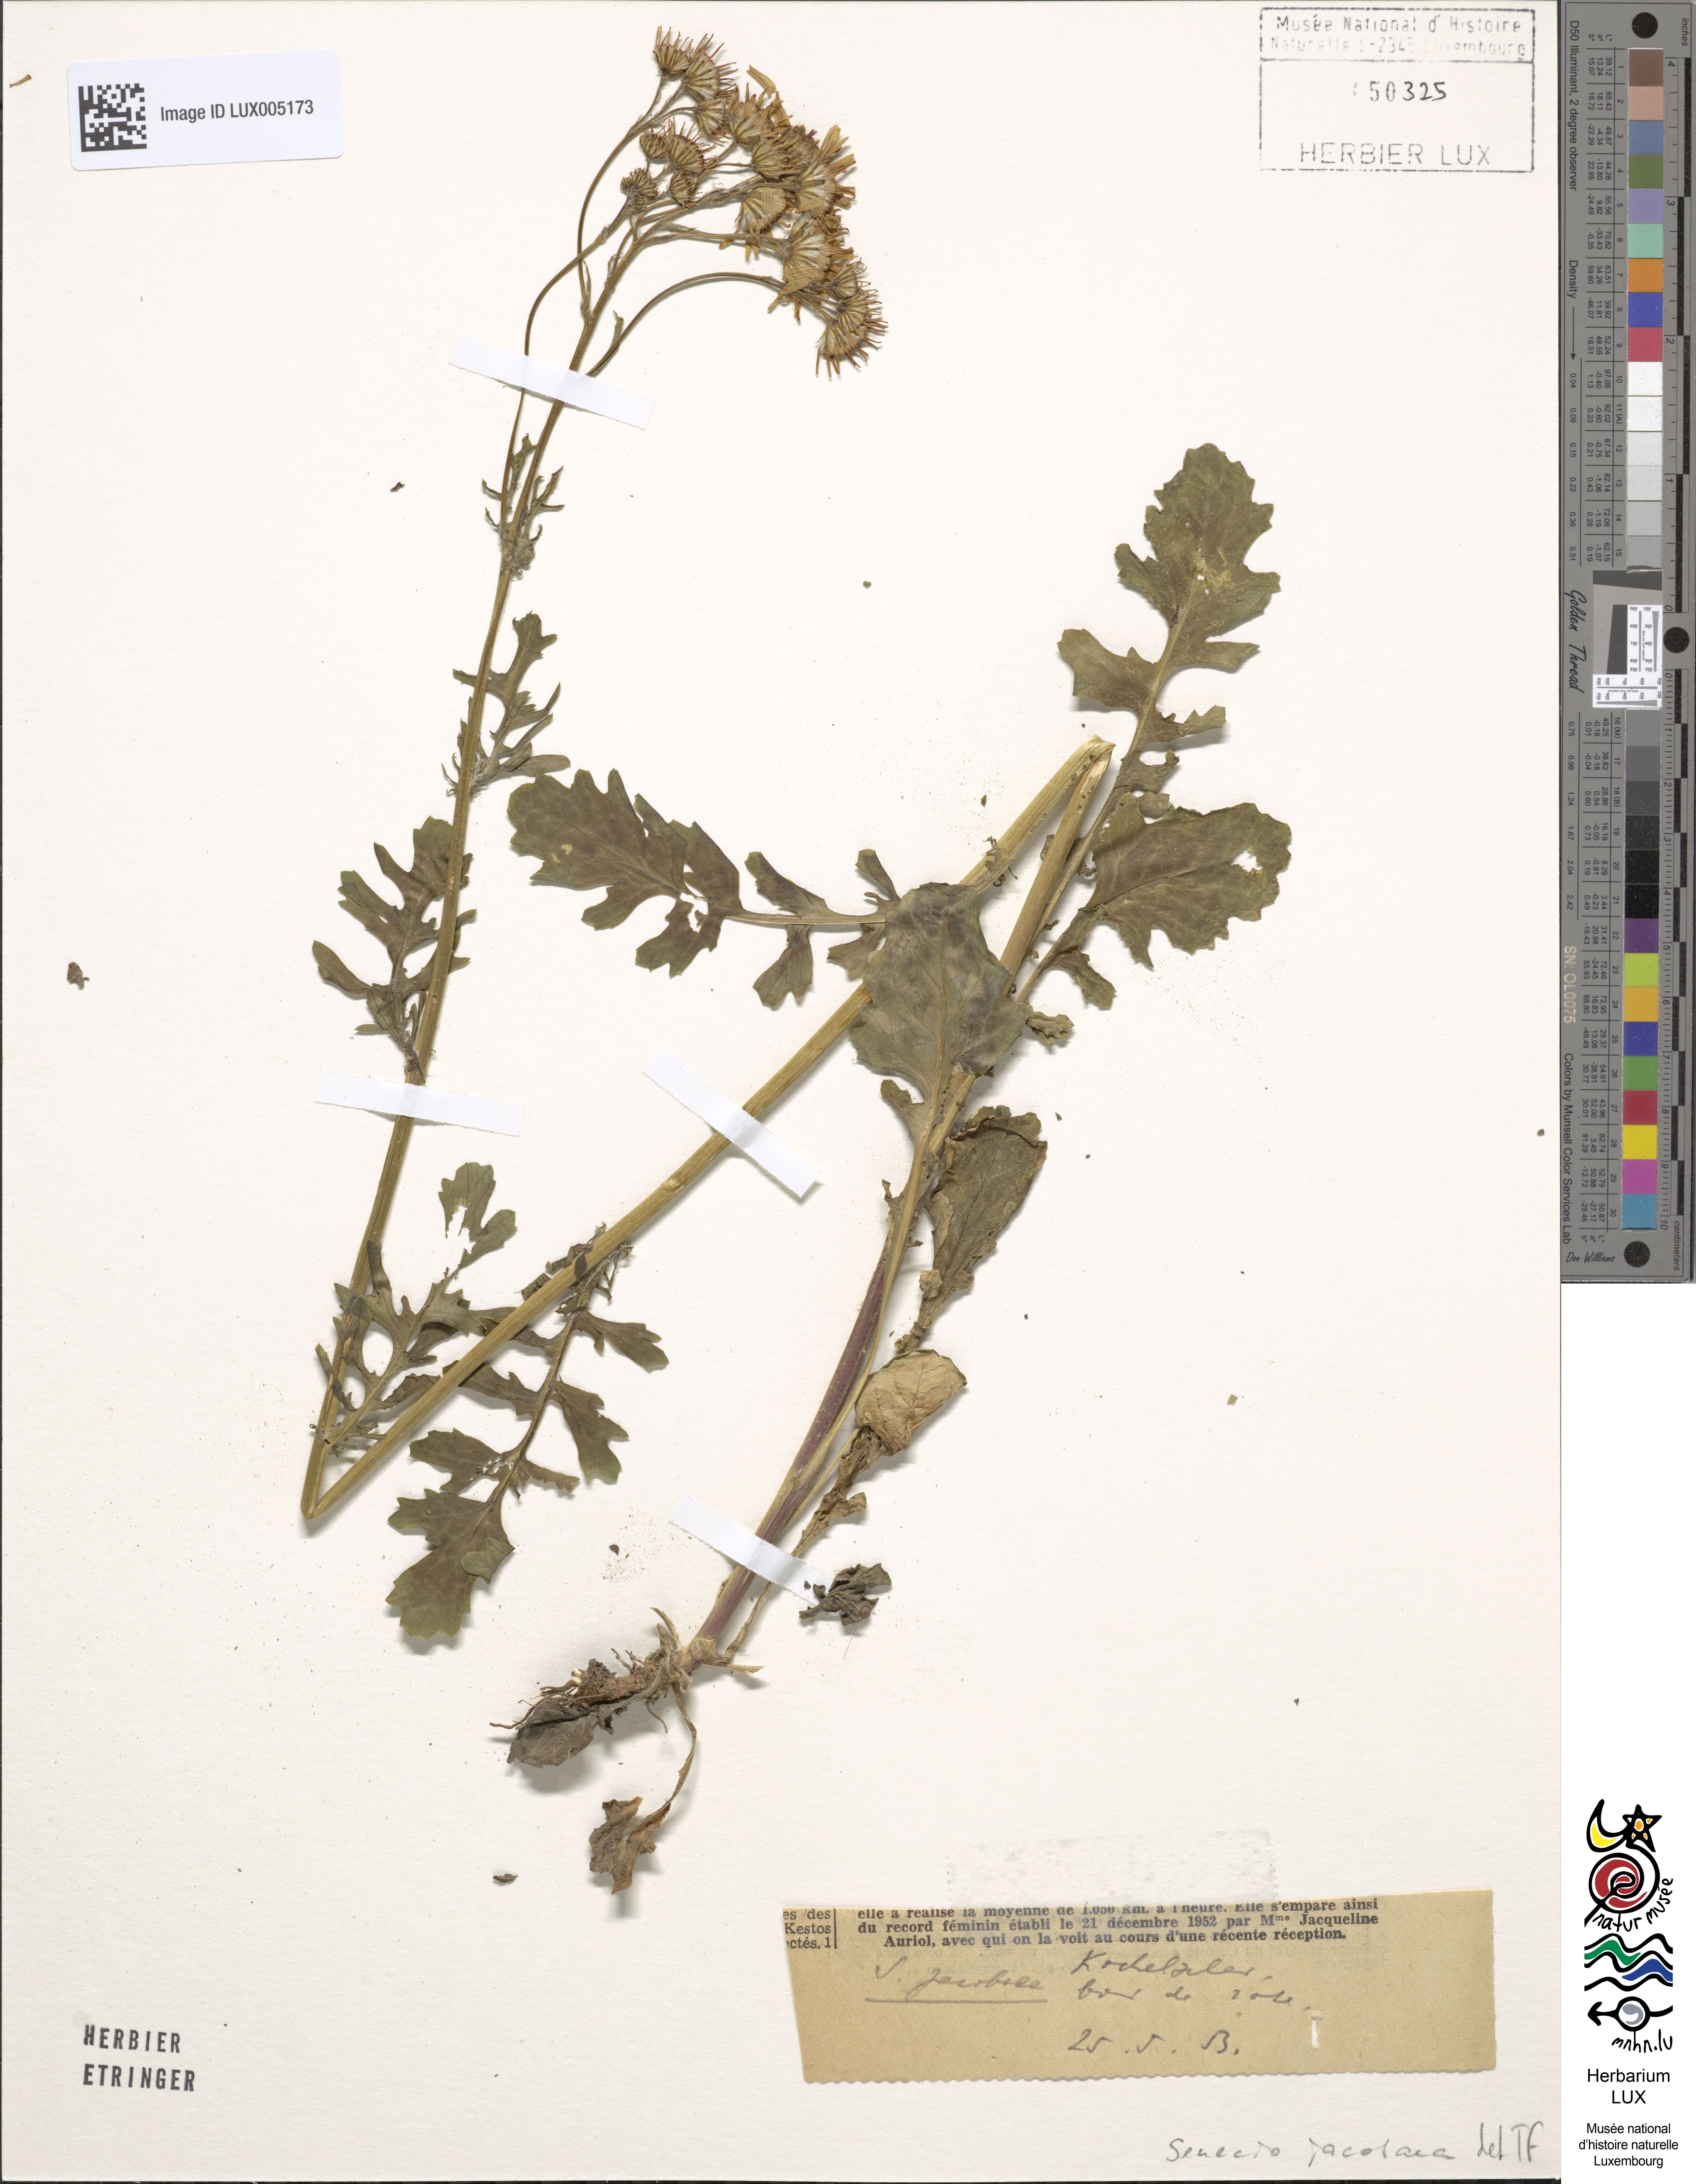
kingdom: Plantae
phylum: Tracheophyta
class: Magnoliopsida
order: Asterales
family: Asteraceae
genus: Jacobaea
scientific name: Jacobaea vulgaris
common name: Stinking willie
